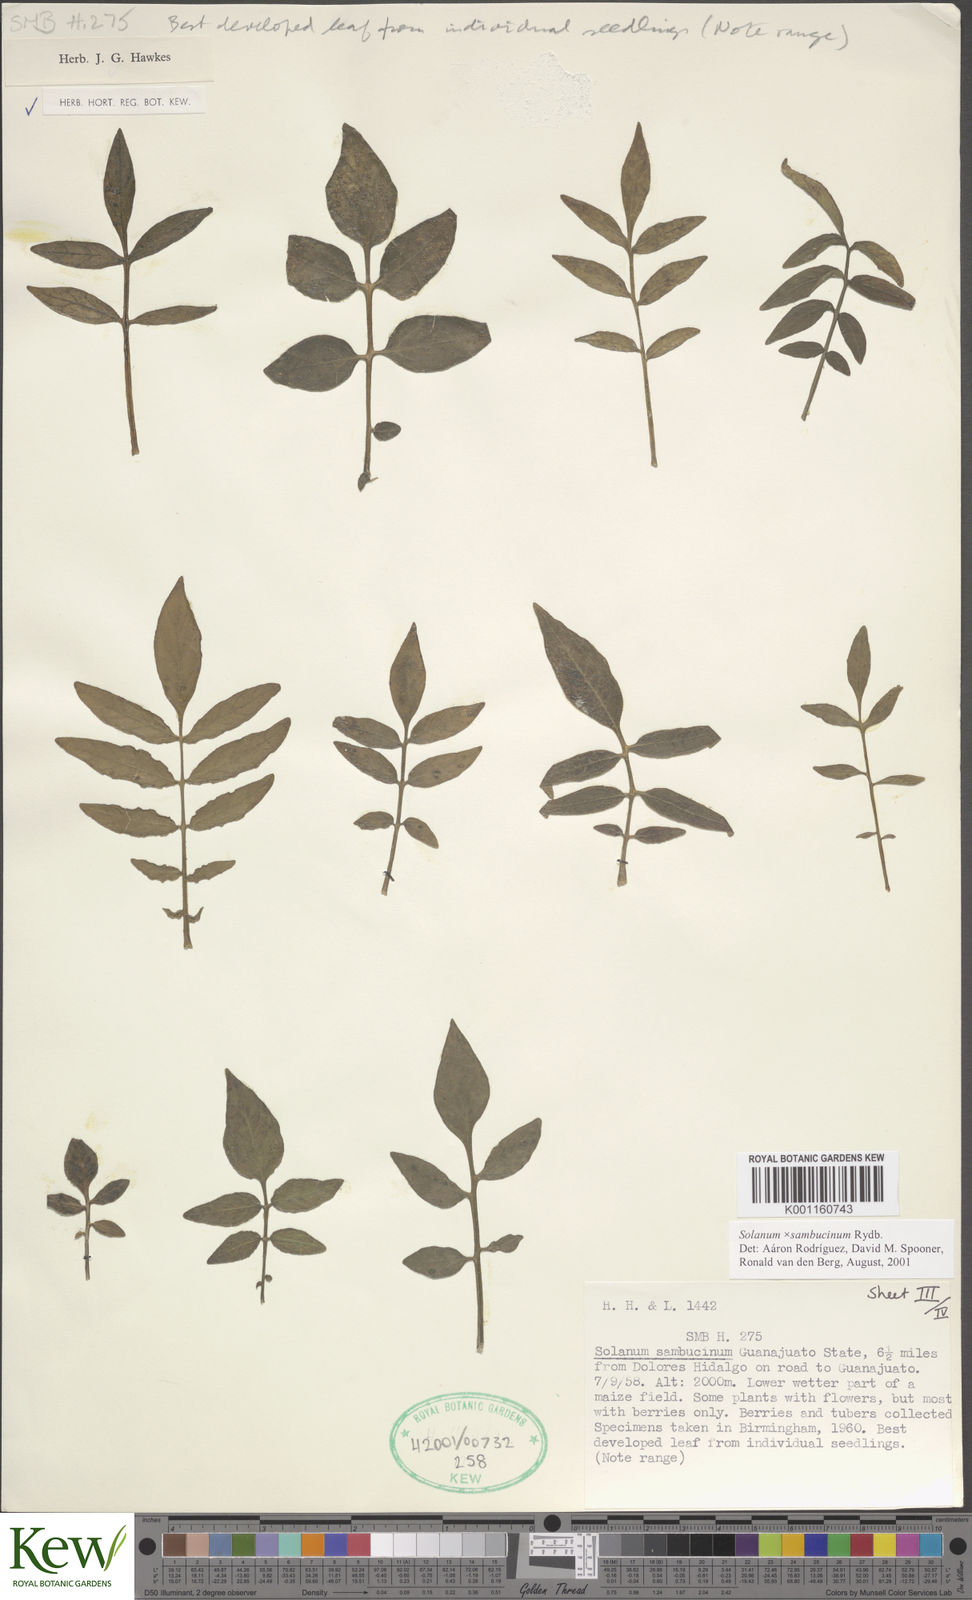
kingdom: Plantae
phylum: Tracheophyta
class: Magnoliopsida
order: Solanales
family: Solanaceae
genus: Solanum
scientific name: Solanum sambucinum
